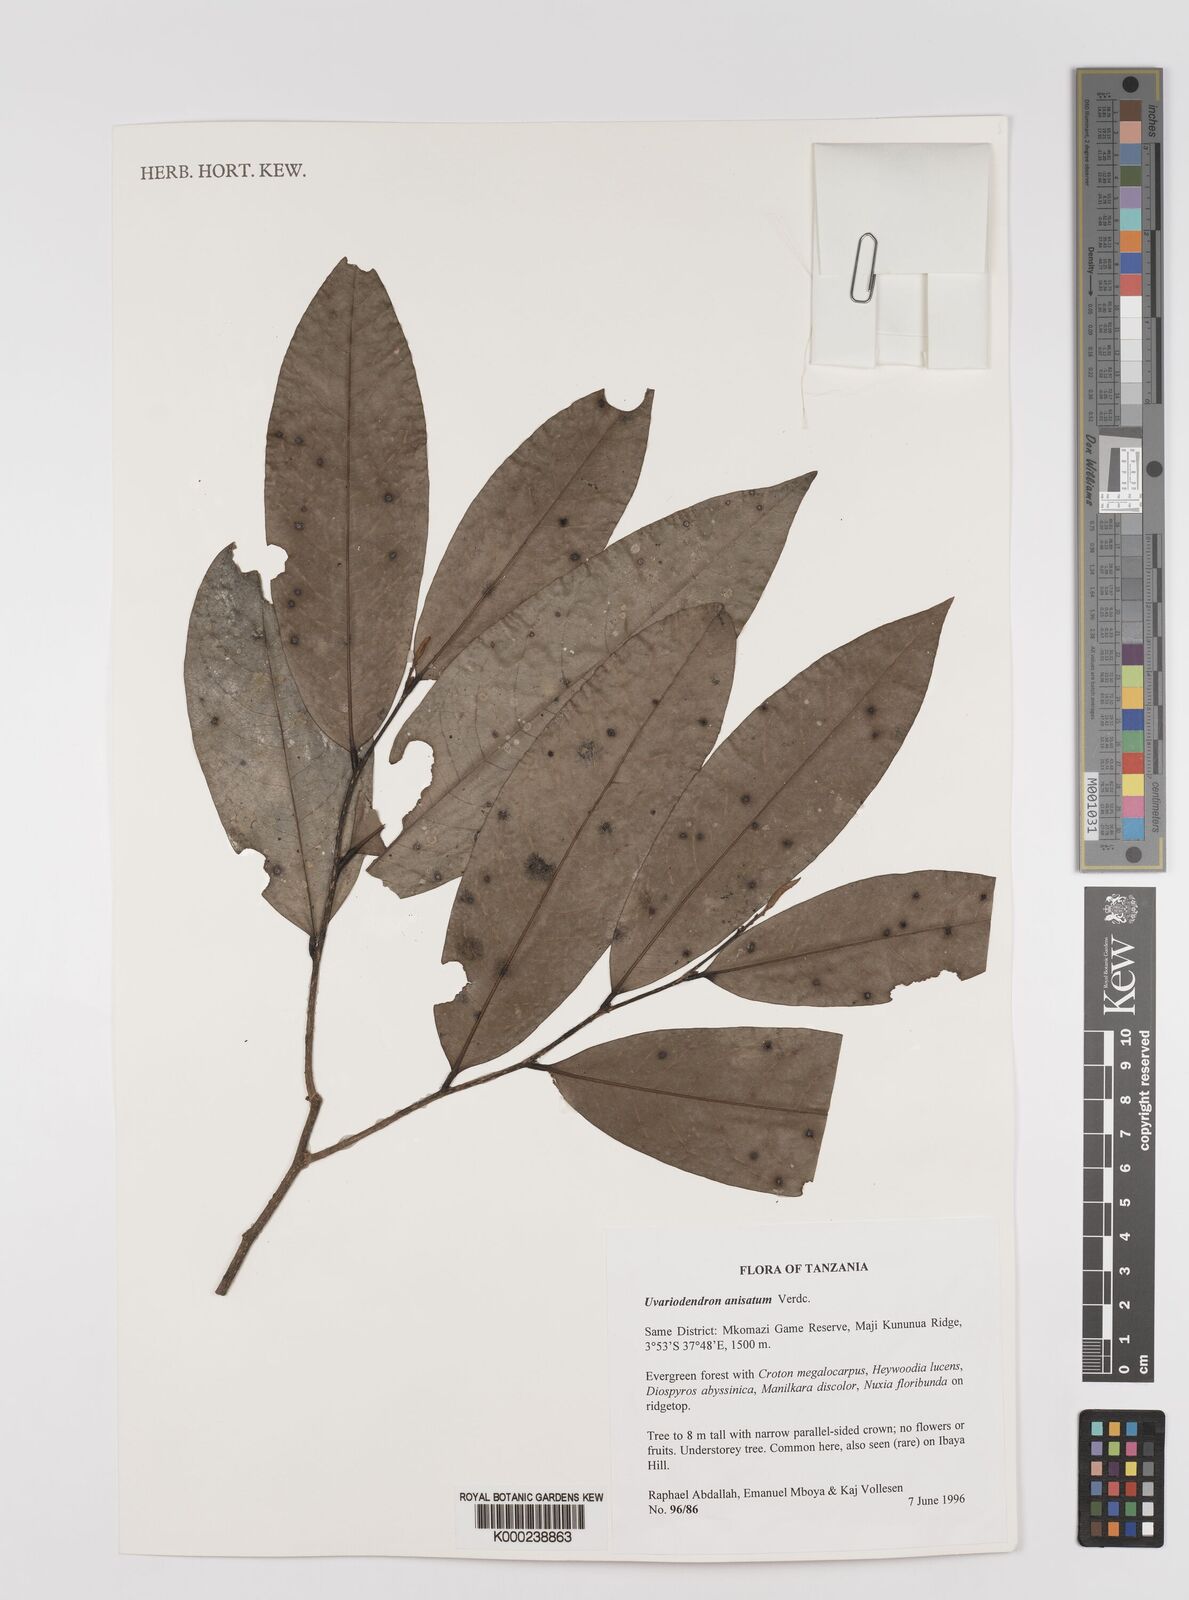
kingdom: Plantae
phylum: Tracheophyta
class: Magnoliopsida
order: Magnoliales
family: Annonaceae
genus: Uvariodendron
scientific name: Uvariodendron anisatum
